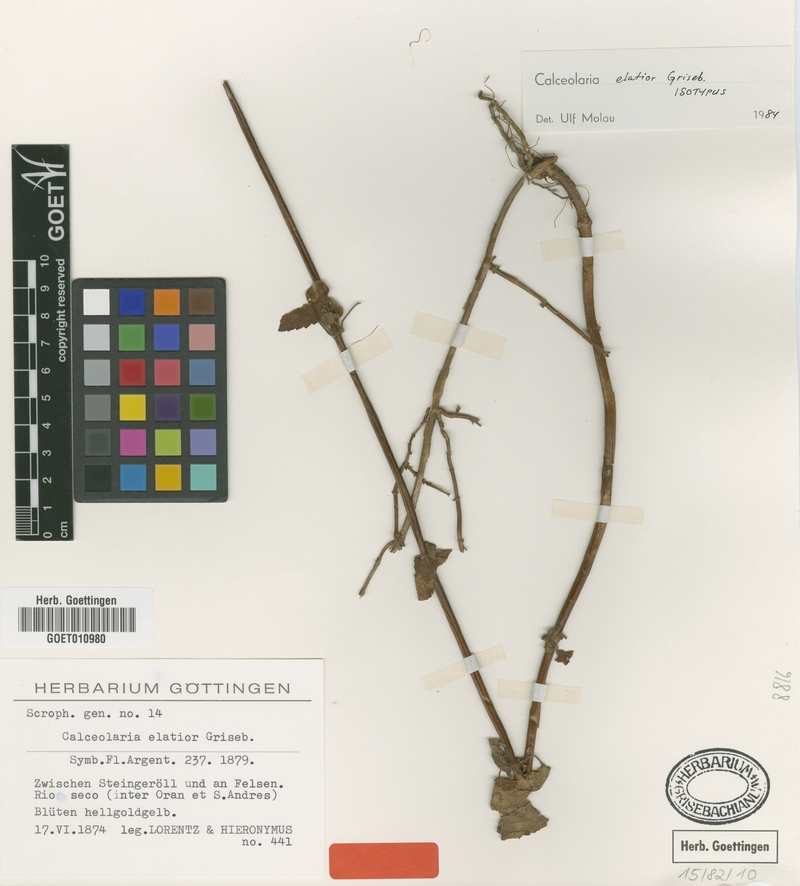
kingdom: Plantae
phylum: Tracheophyta
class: Magnoliopsida
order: Lamiales
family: Calceolariaceae
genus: Calceolaria
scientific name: Calceolaria elatior
